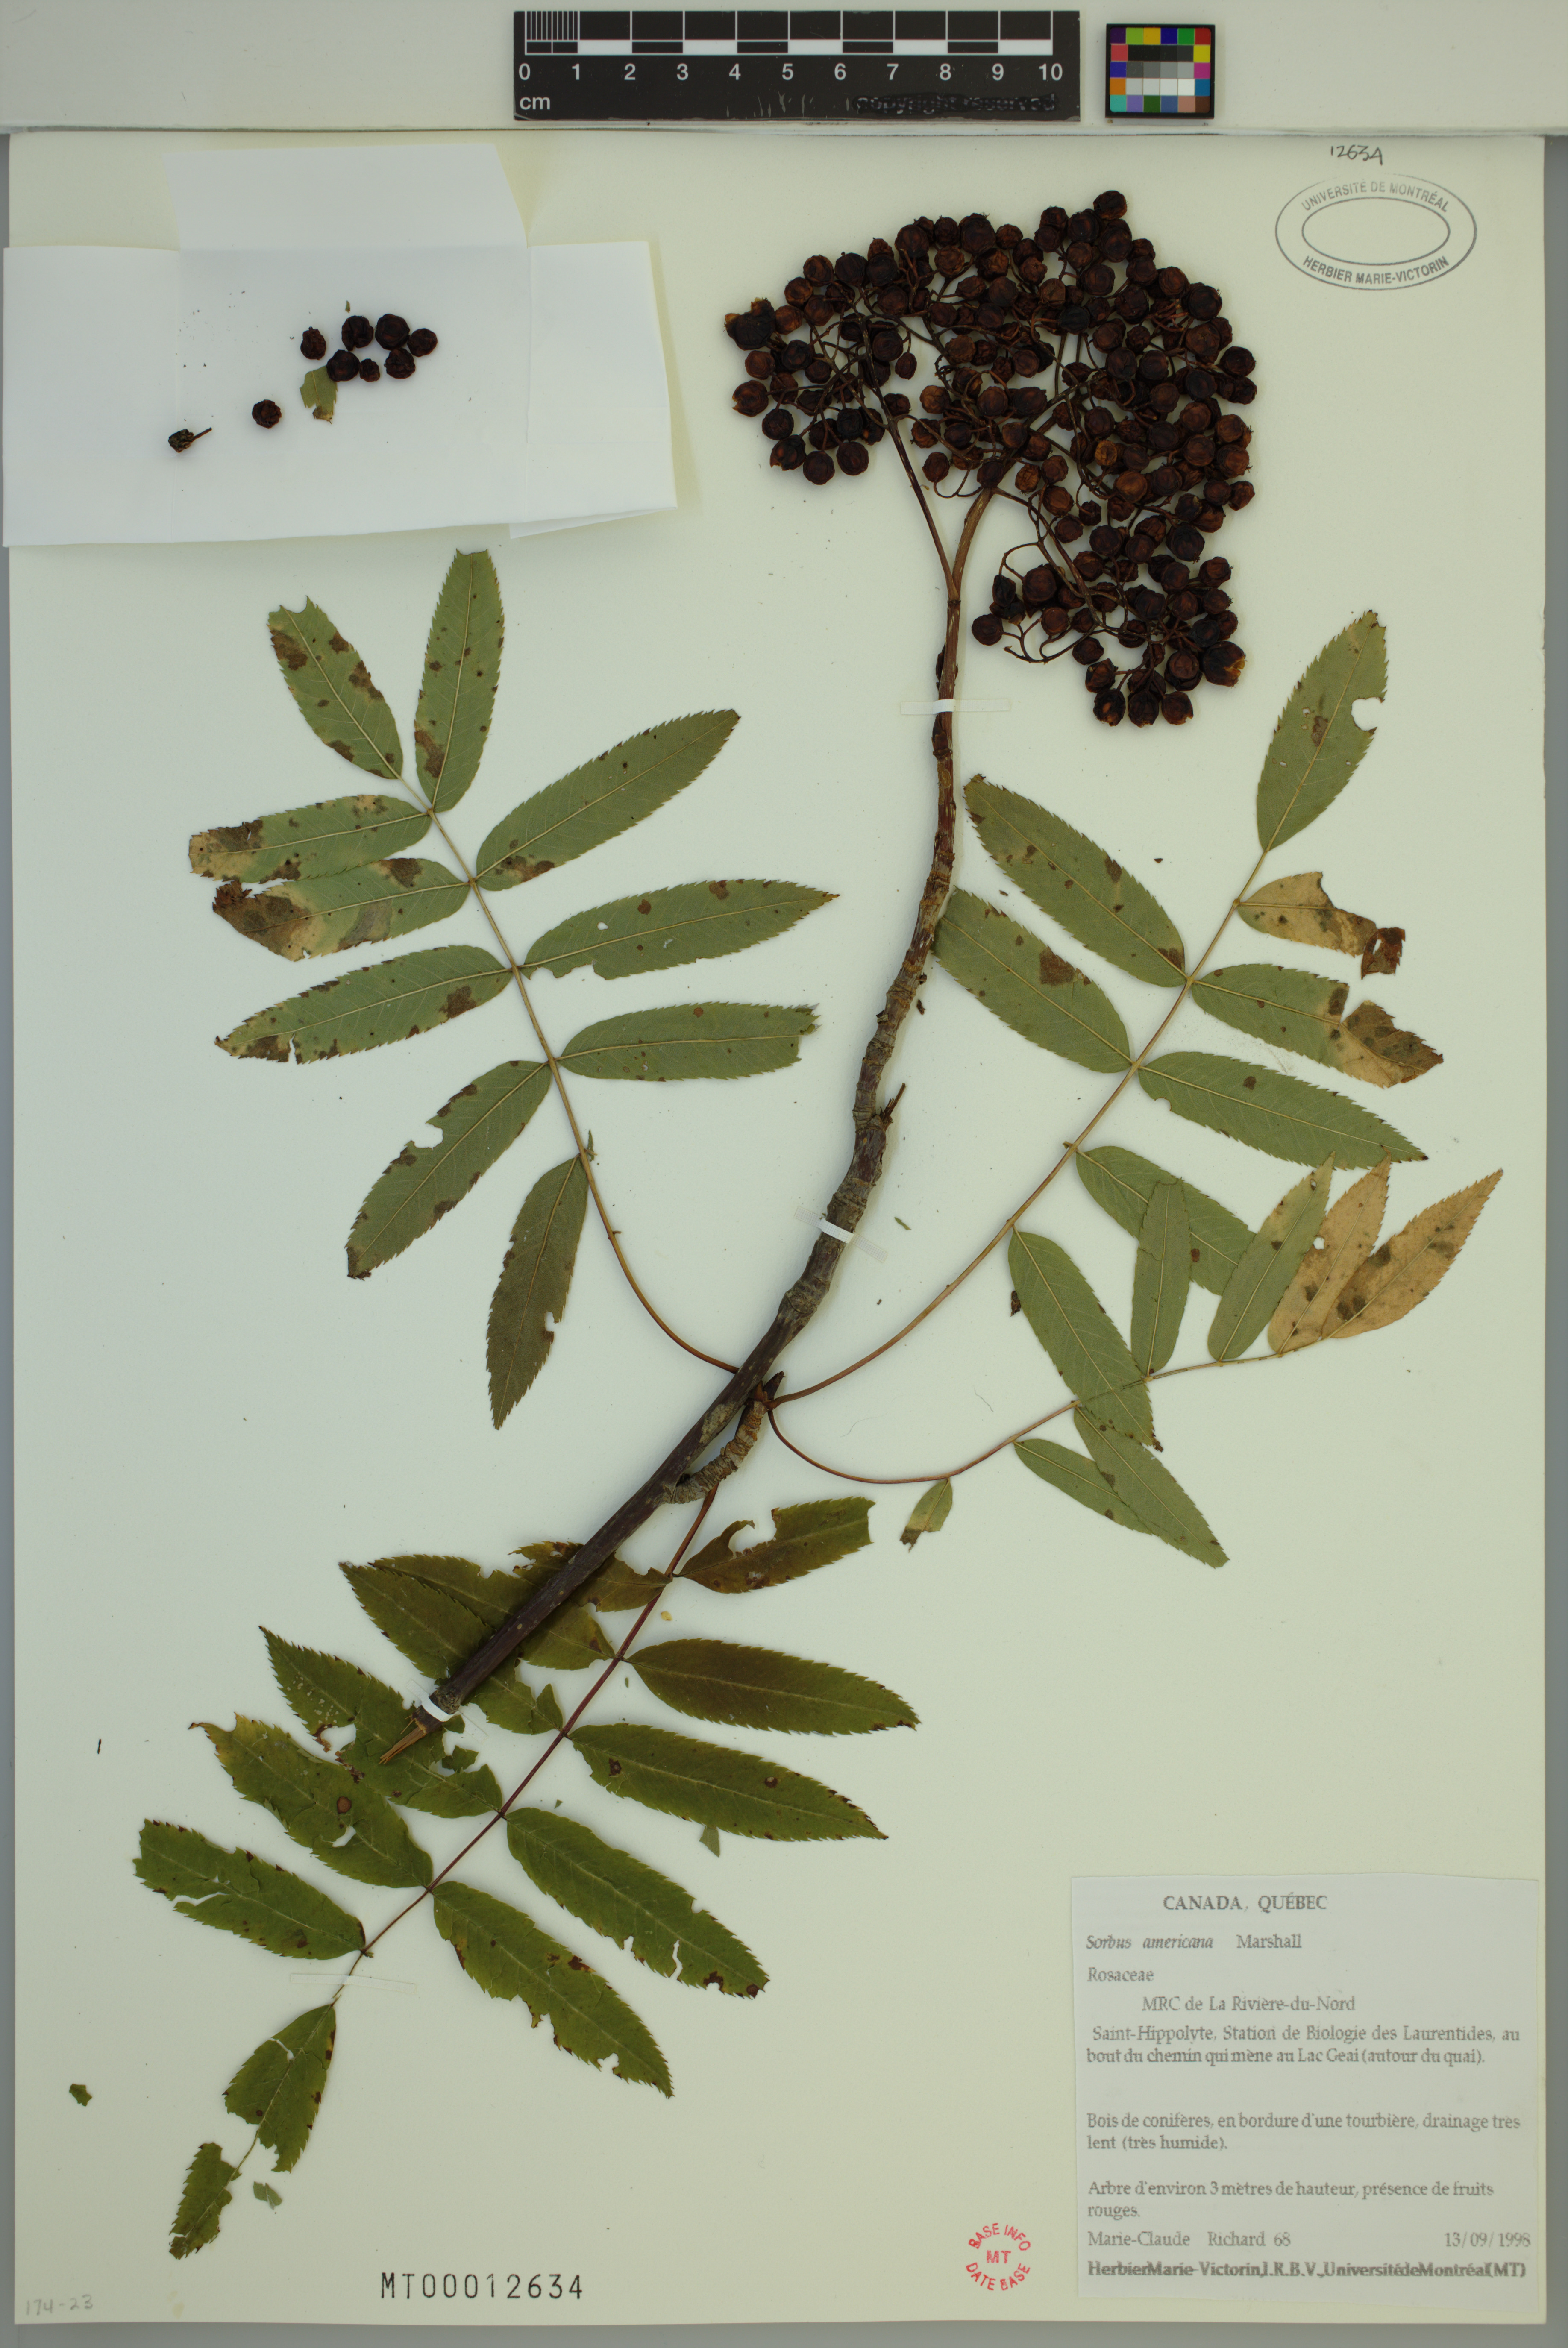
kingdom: Plantae
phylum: Tracheophyta
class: Magnoliopsida
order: Rosales
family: Rosaceae
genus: Sorbus
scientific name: Sorbus americana
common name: American mountain-ash
